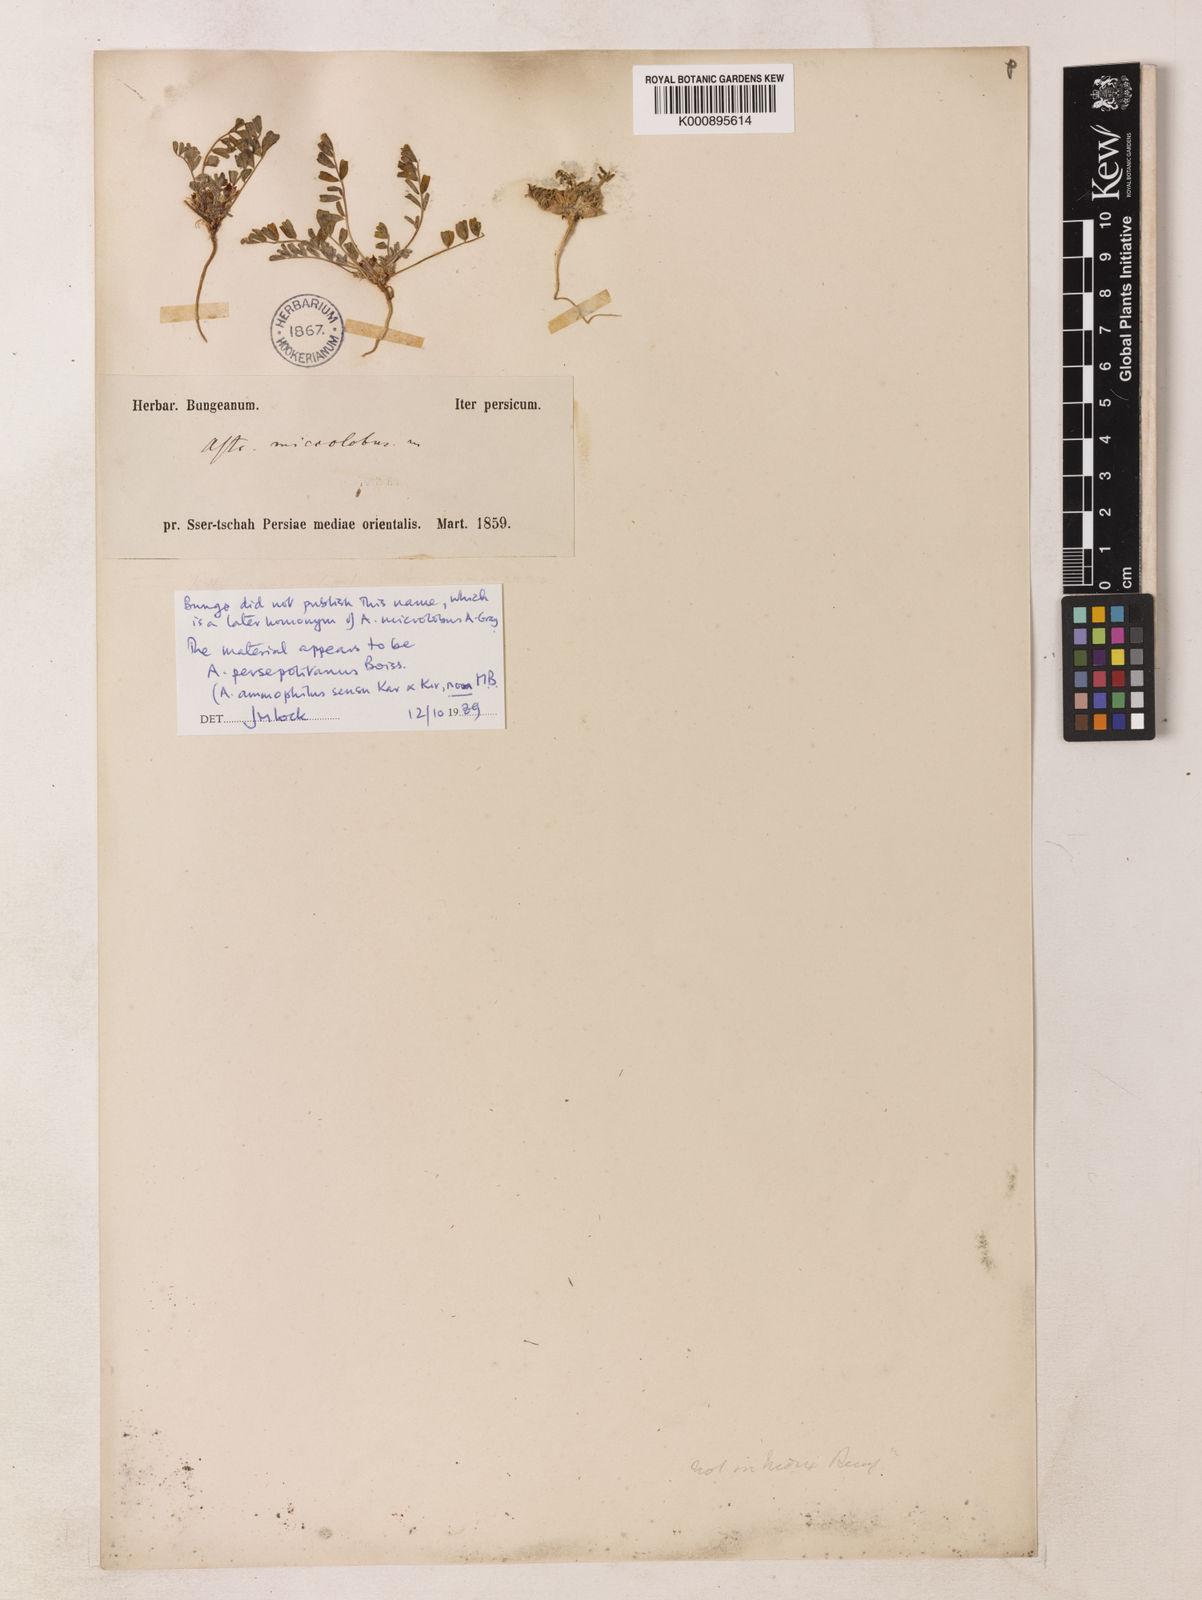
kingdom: Plantae
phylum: Tracheophyta
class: Magnoliopsida
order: Fabales
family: Fabaceae
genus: Astragalus
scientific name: Astragalus ammophilus
